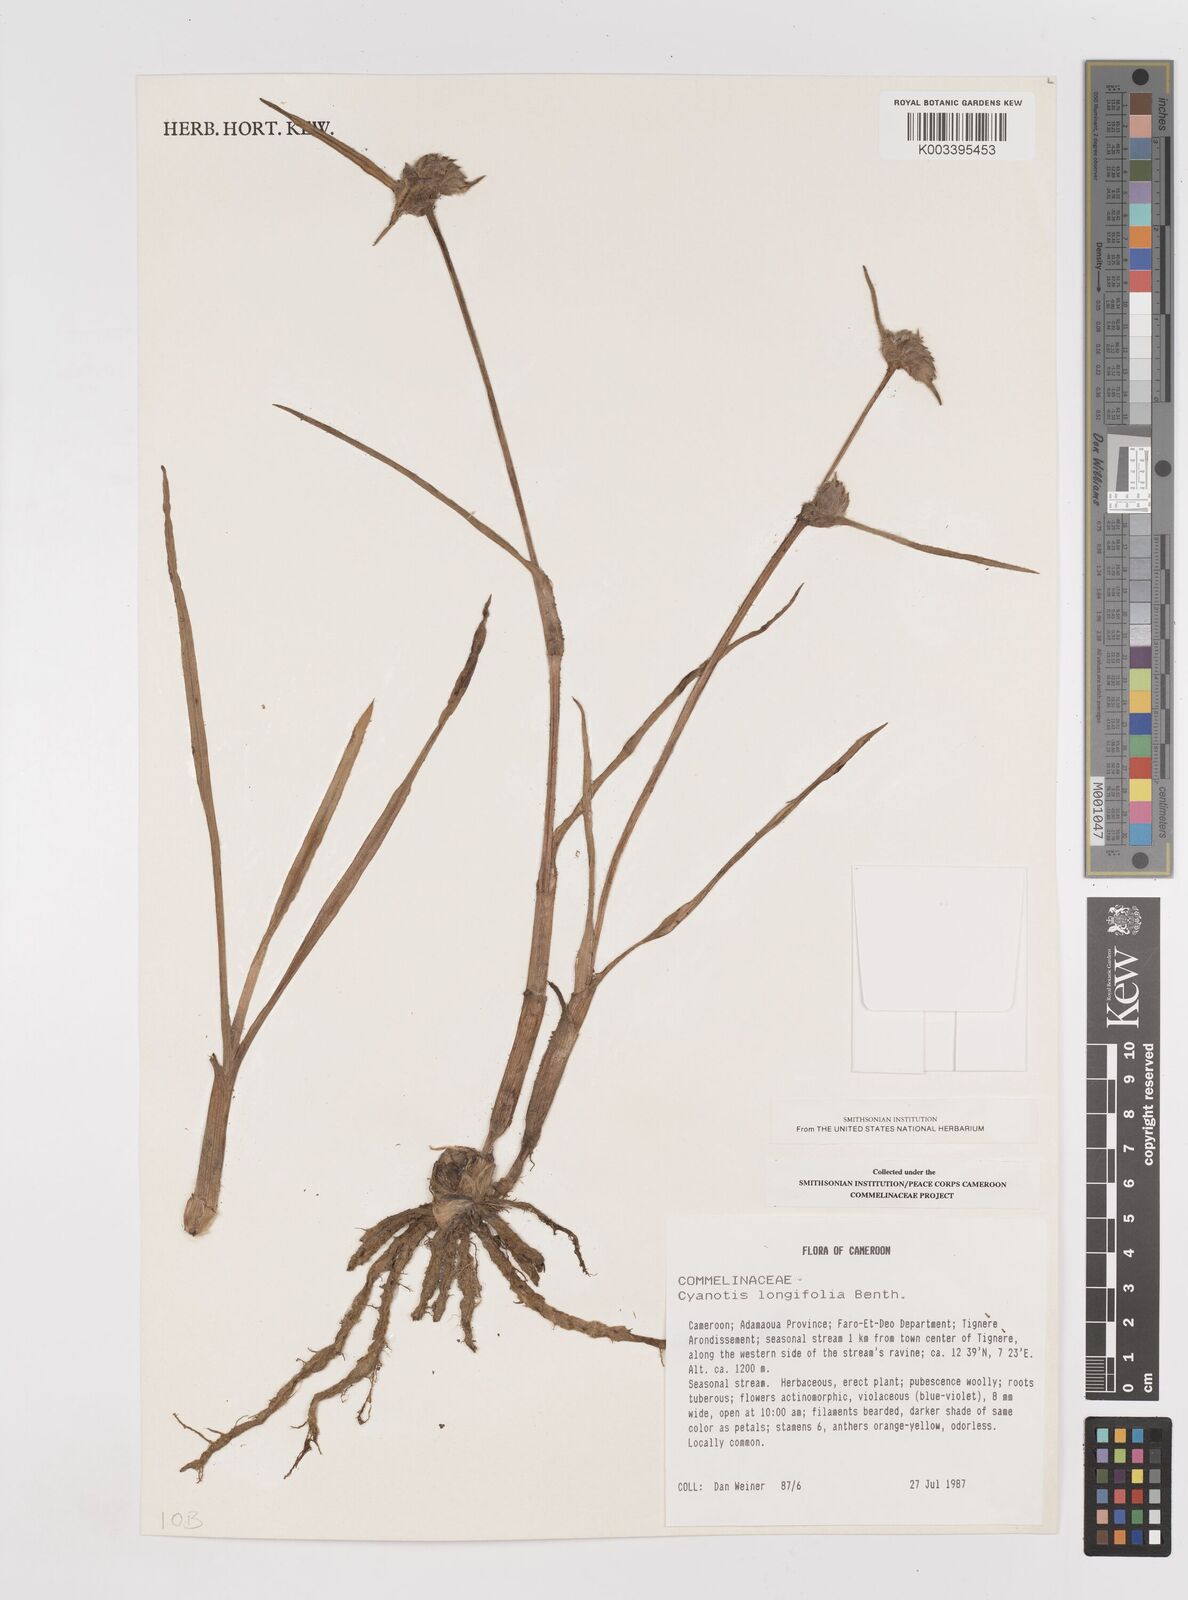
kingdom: Plantae
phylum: Tracheophyta
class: Liliopsida
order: Commelinales
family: Commelinaceae
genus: Cyanotis
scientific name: Cyanotis longifolia
